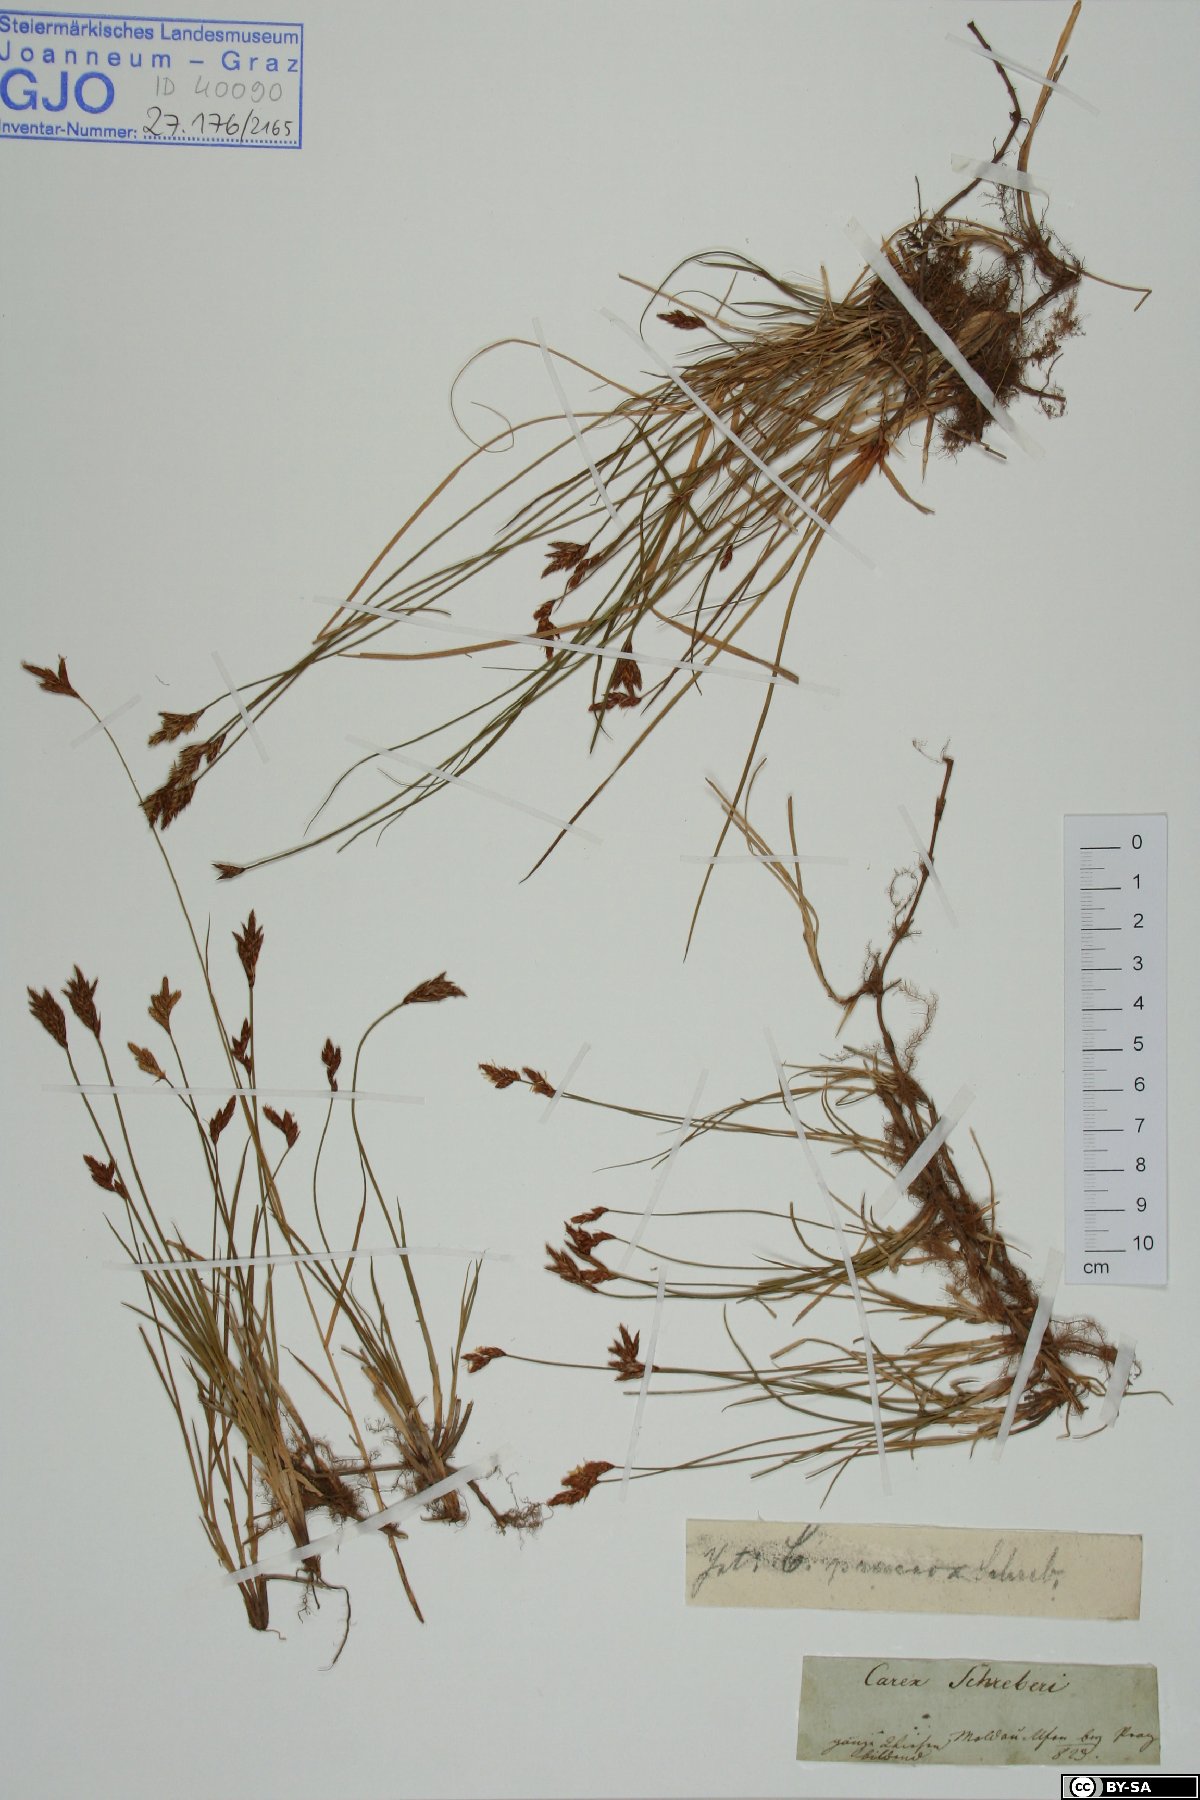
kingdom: Plantae
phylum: Tracheophyta
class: Liliopsida
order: Poales
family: Cyperaceae
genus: Carex
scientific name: Carex praecox
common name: Early sedge
